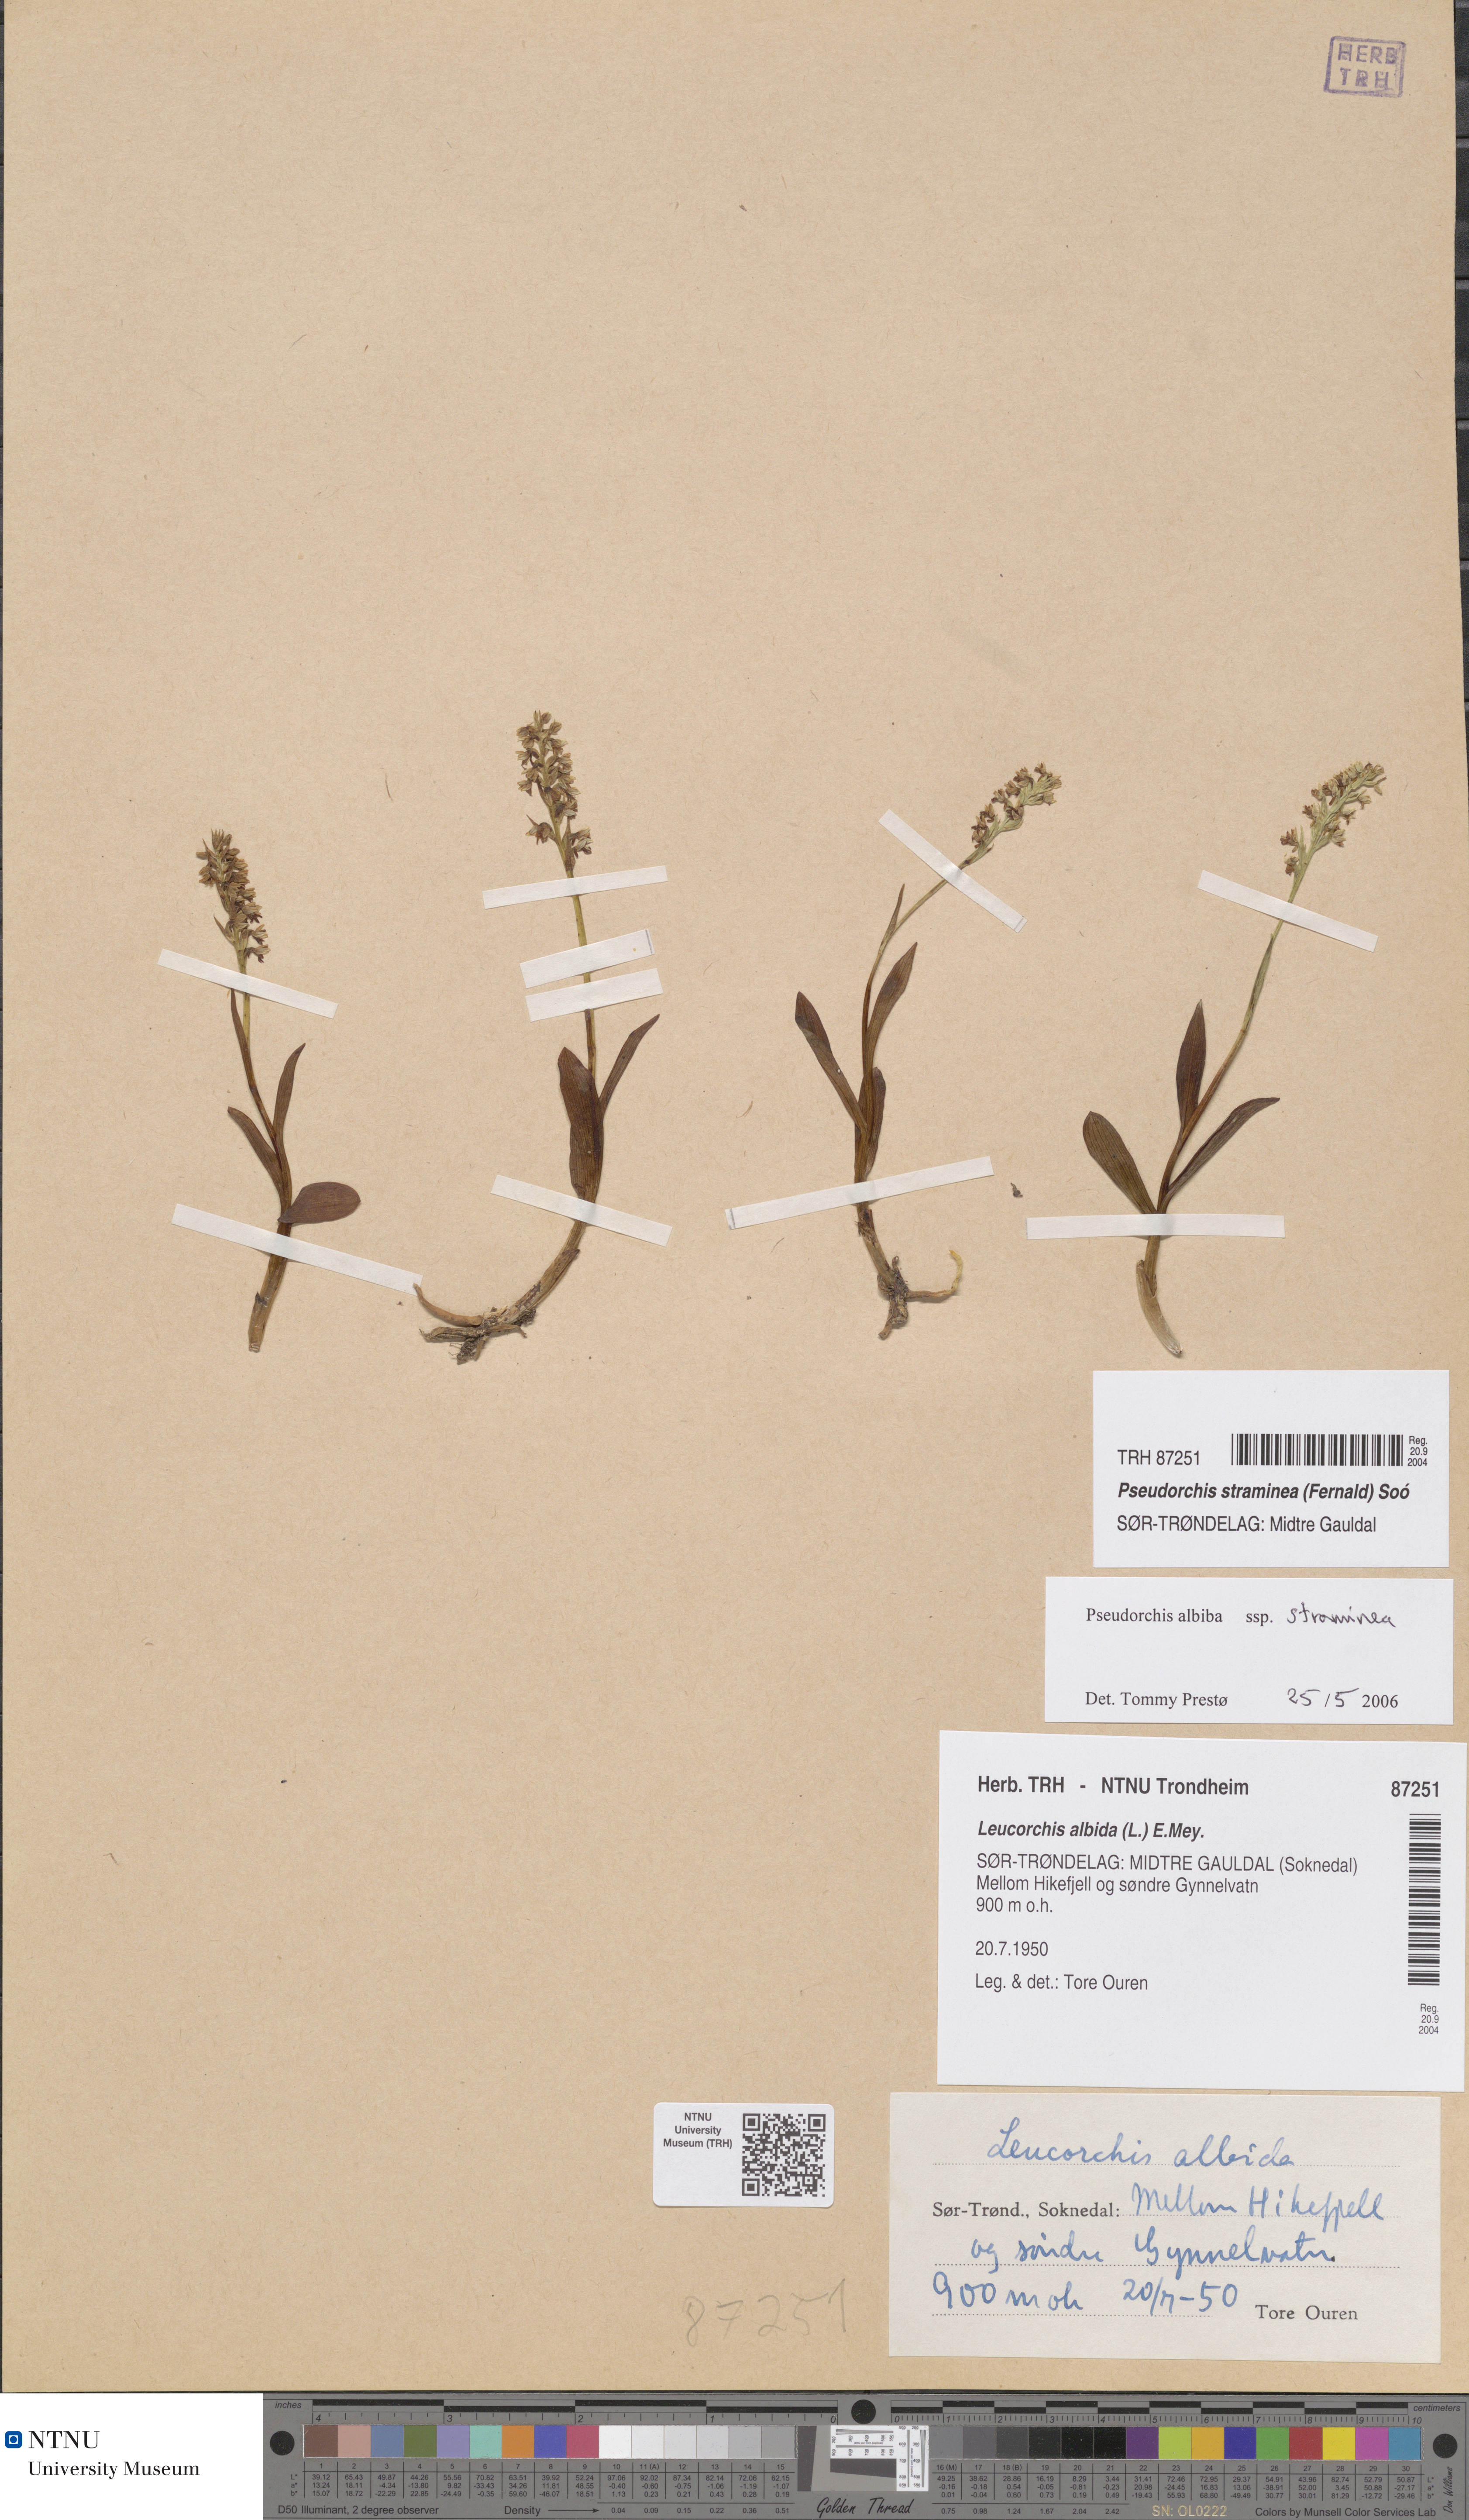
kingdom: Plantae
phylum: Tracheophyta
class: Liliopsida
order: Asparagales
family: Orchidaceae
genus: Pseudorchis
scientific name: Pseudorchis straminea
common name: Vanilla-scented bog orchid
